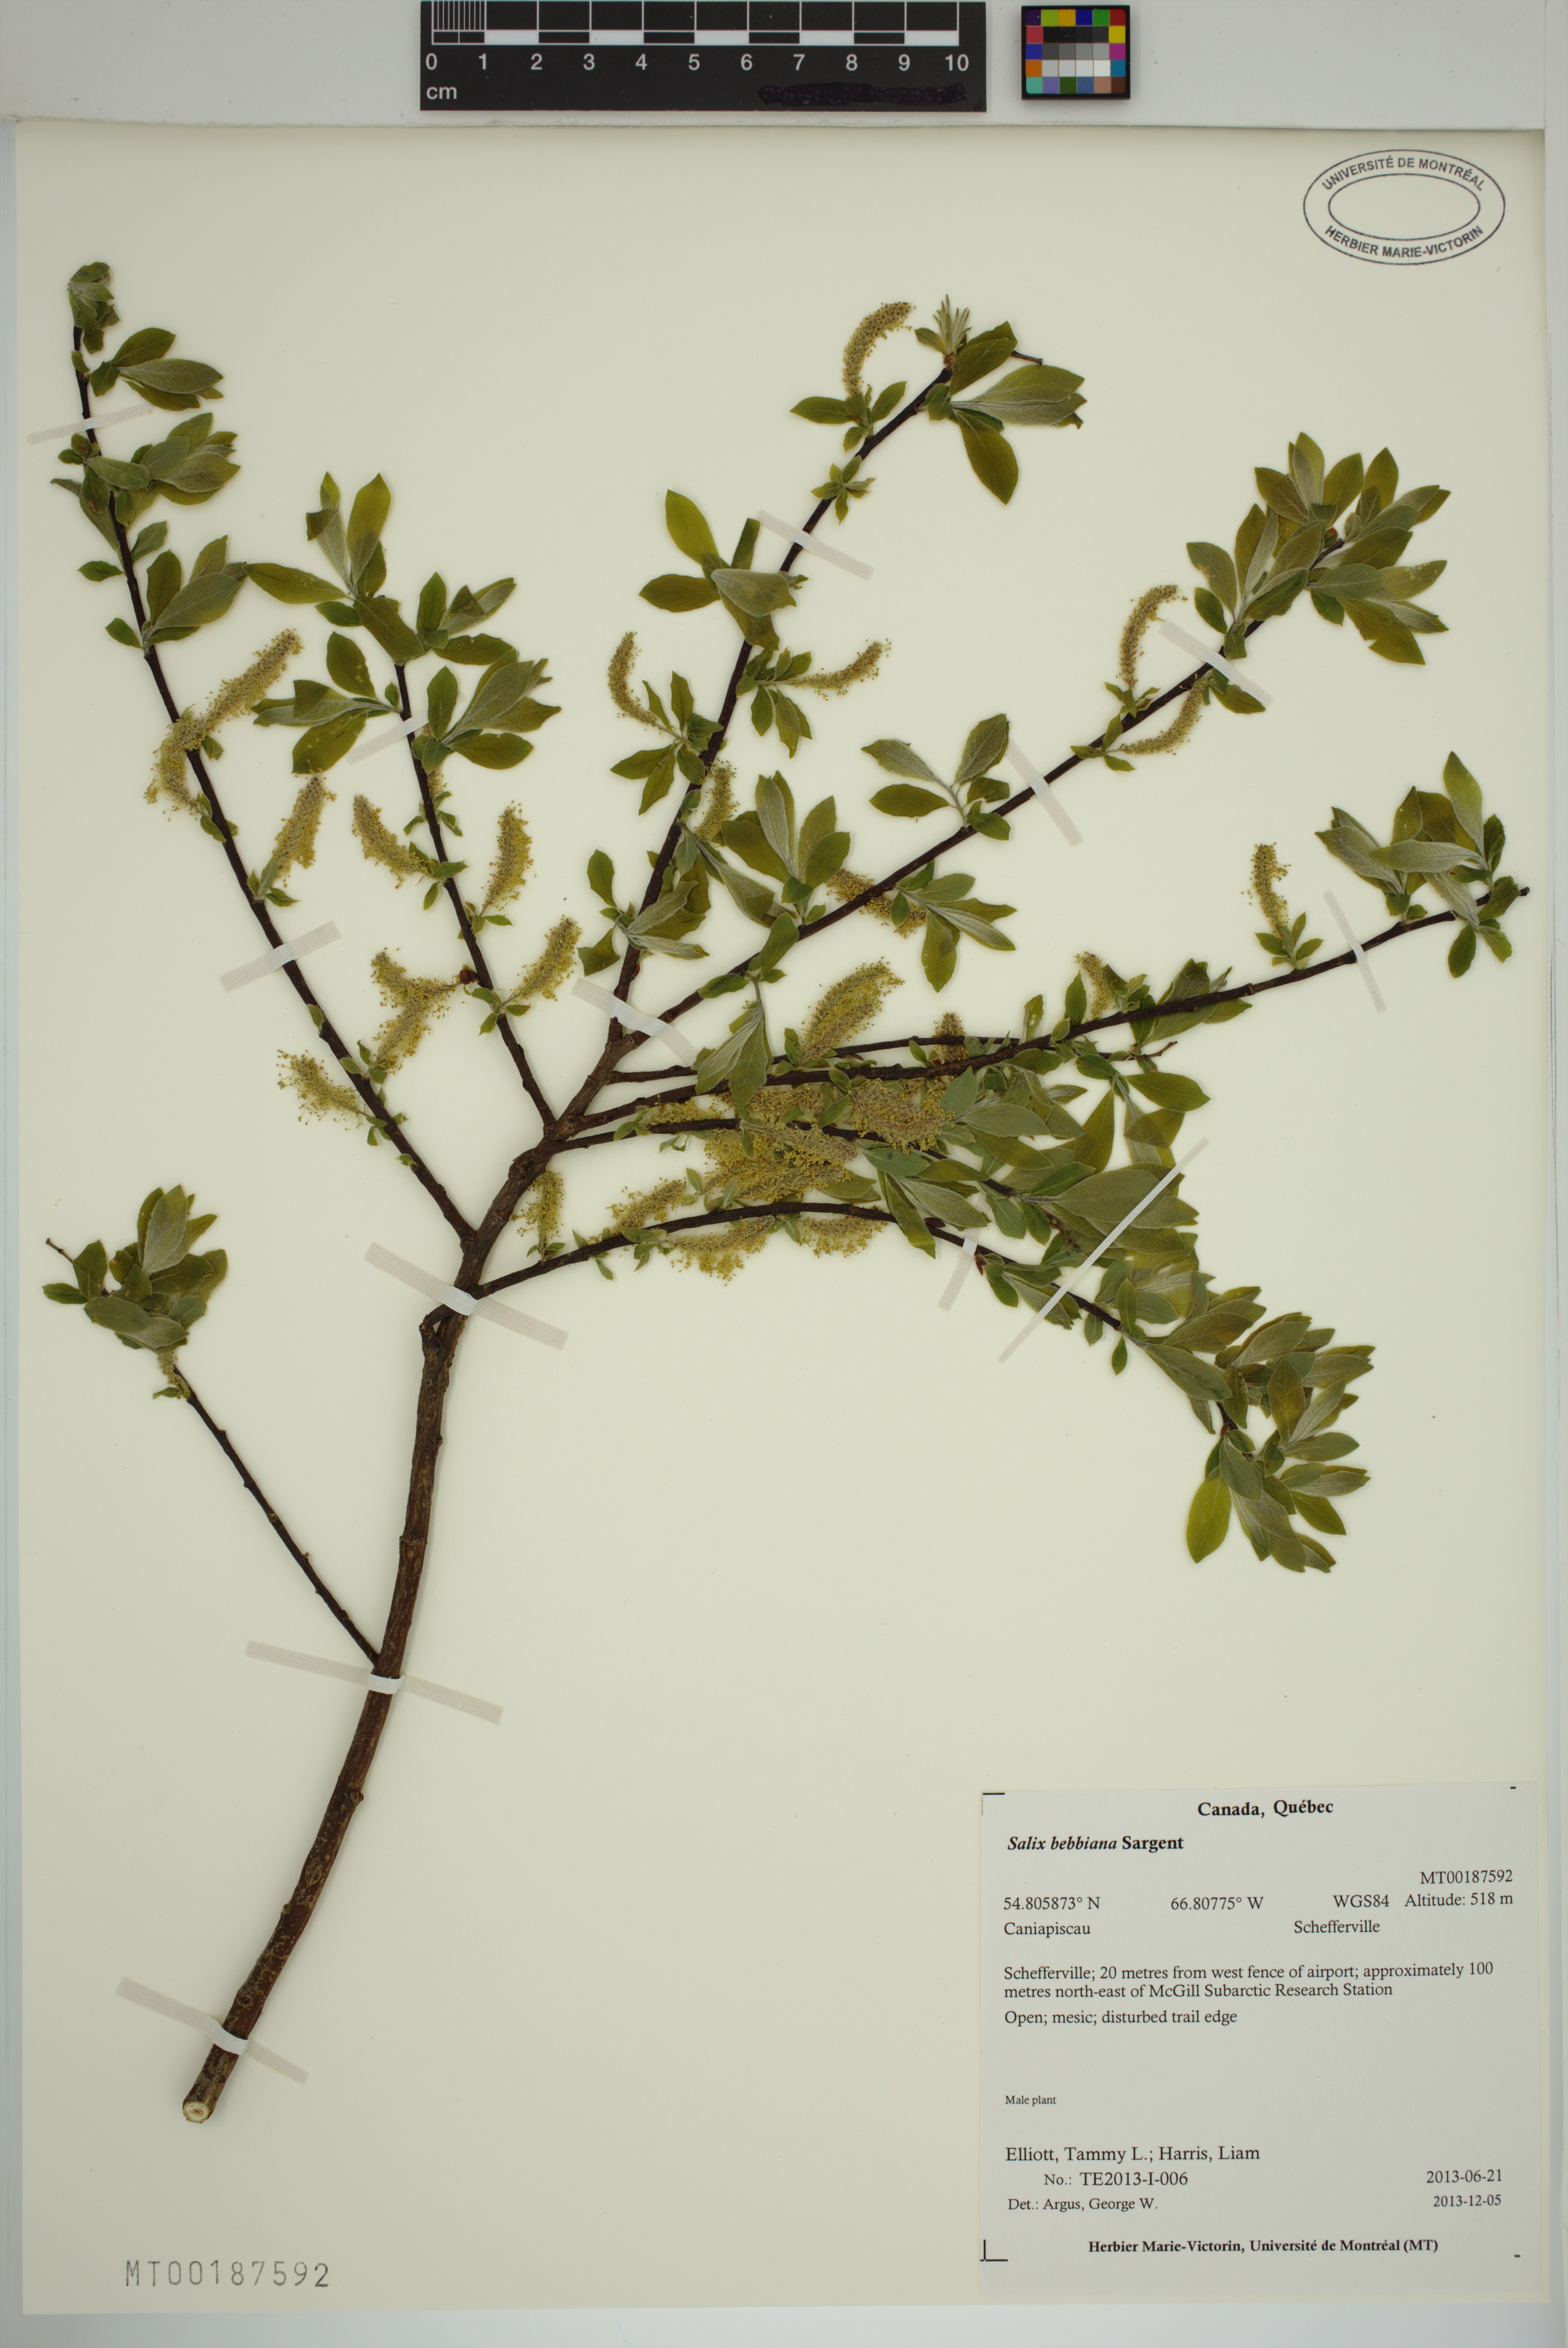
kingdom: Plantae
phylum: Tracheophyta
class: Magnoliopsida
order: Malpighiales
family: Salicaceae
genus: Salix
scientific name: Salix bebbiana
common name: Bebb's willow
